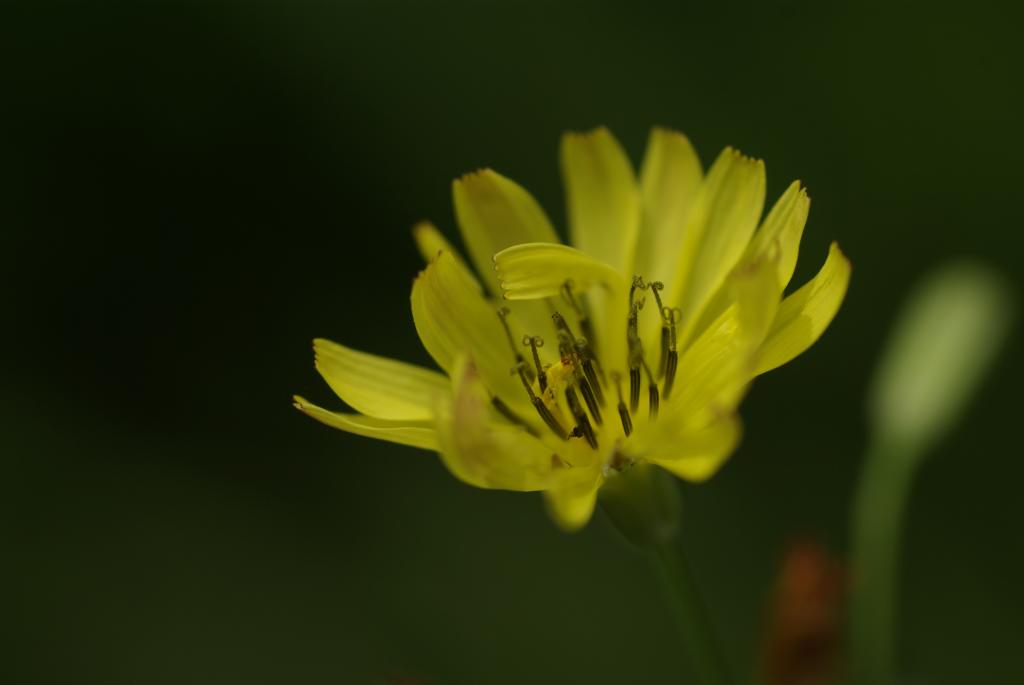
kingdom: Plantae
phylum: Tracheophyta
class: Magnoliopsida
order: Asterales
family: Asteraceae
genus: Ixeris
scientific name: Ixeris chinensis
